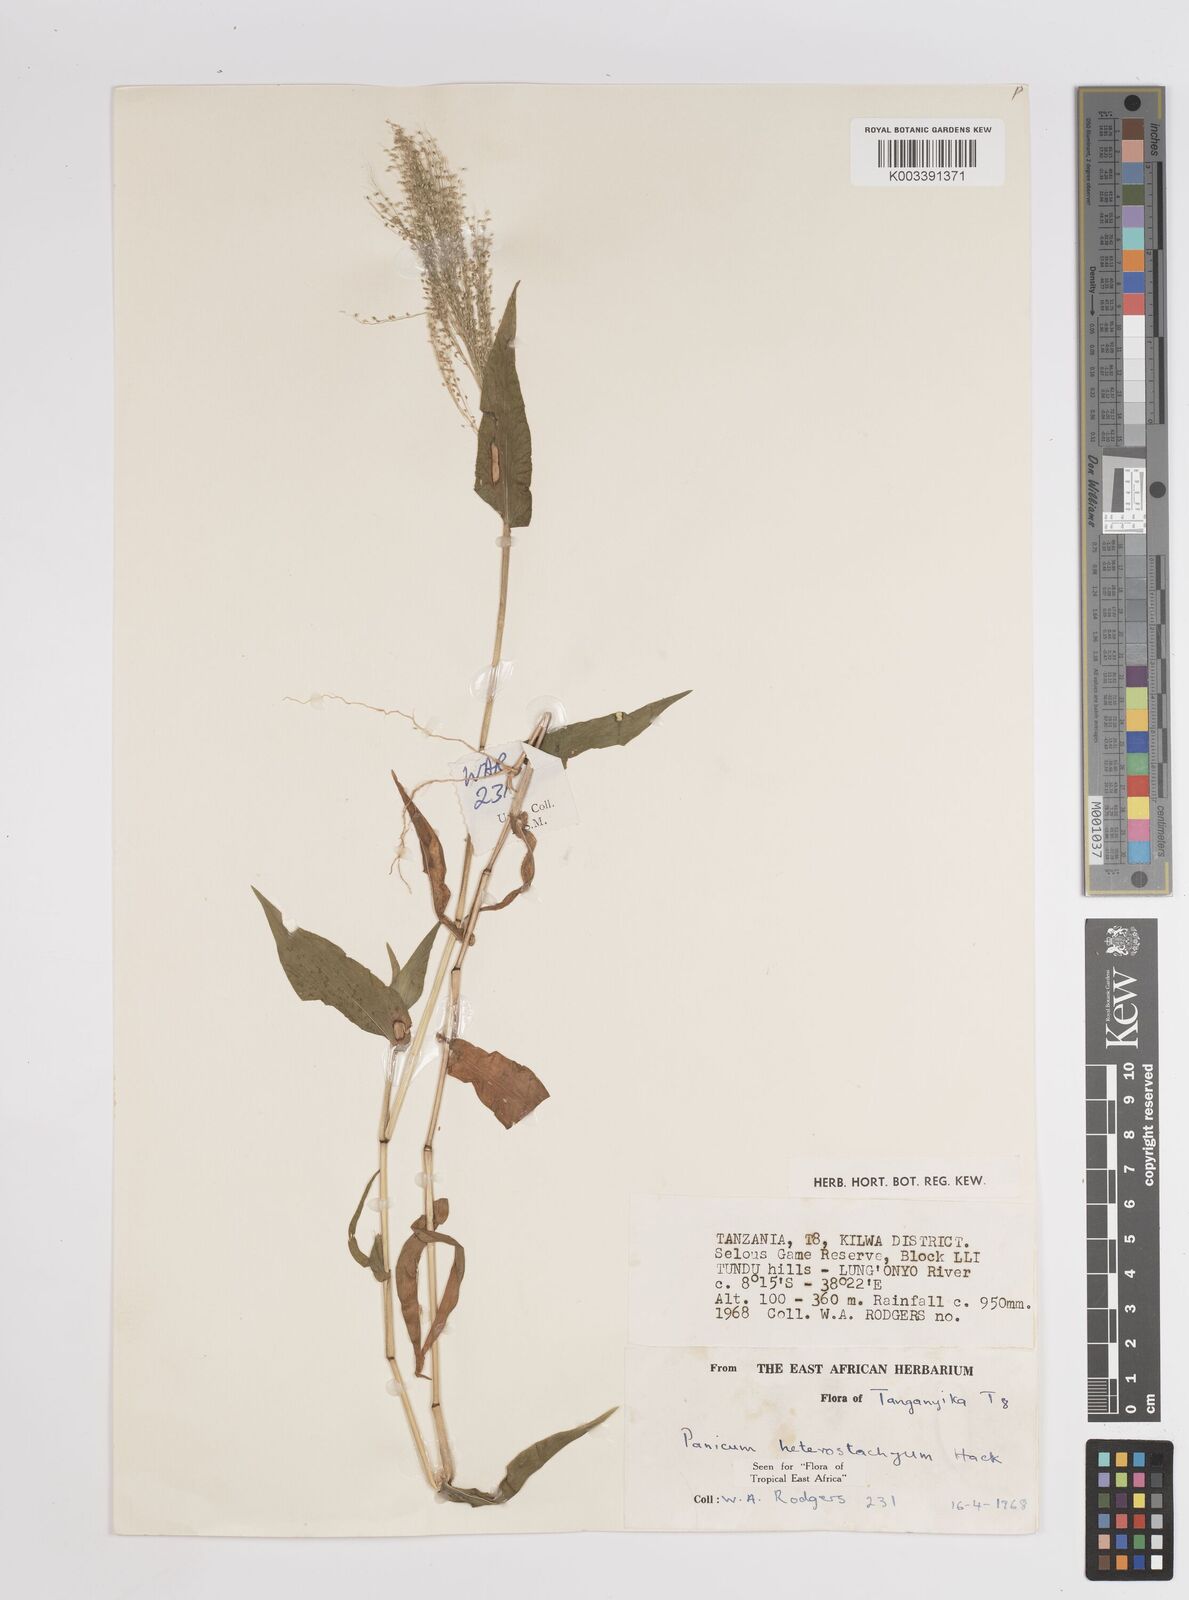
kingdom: Plantae
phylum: Tracheophyta
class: Liliopsida
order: Poales
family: Poaceae
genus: Panicum
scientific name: Panicum hirtum
